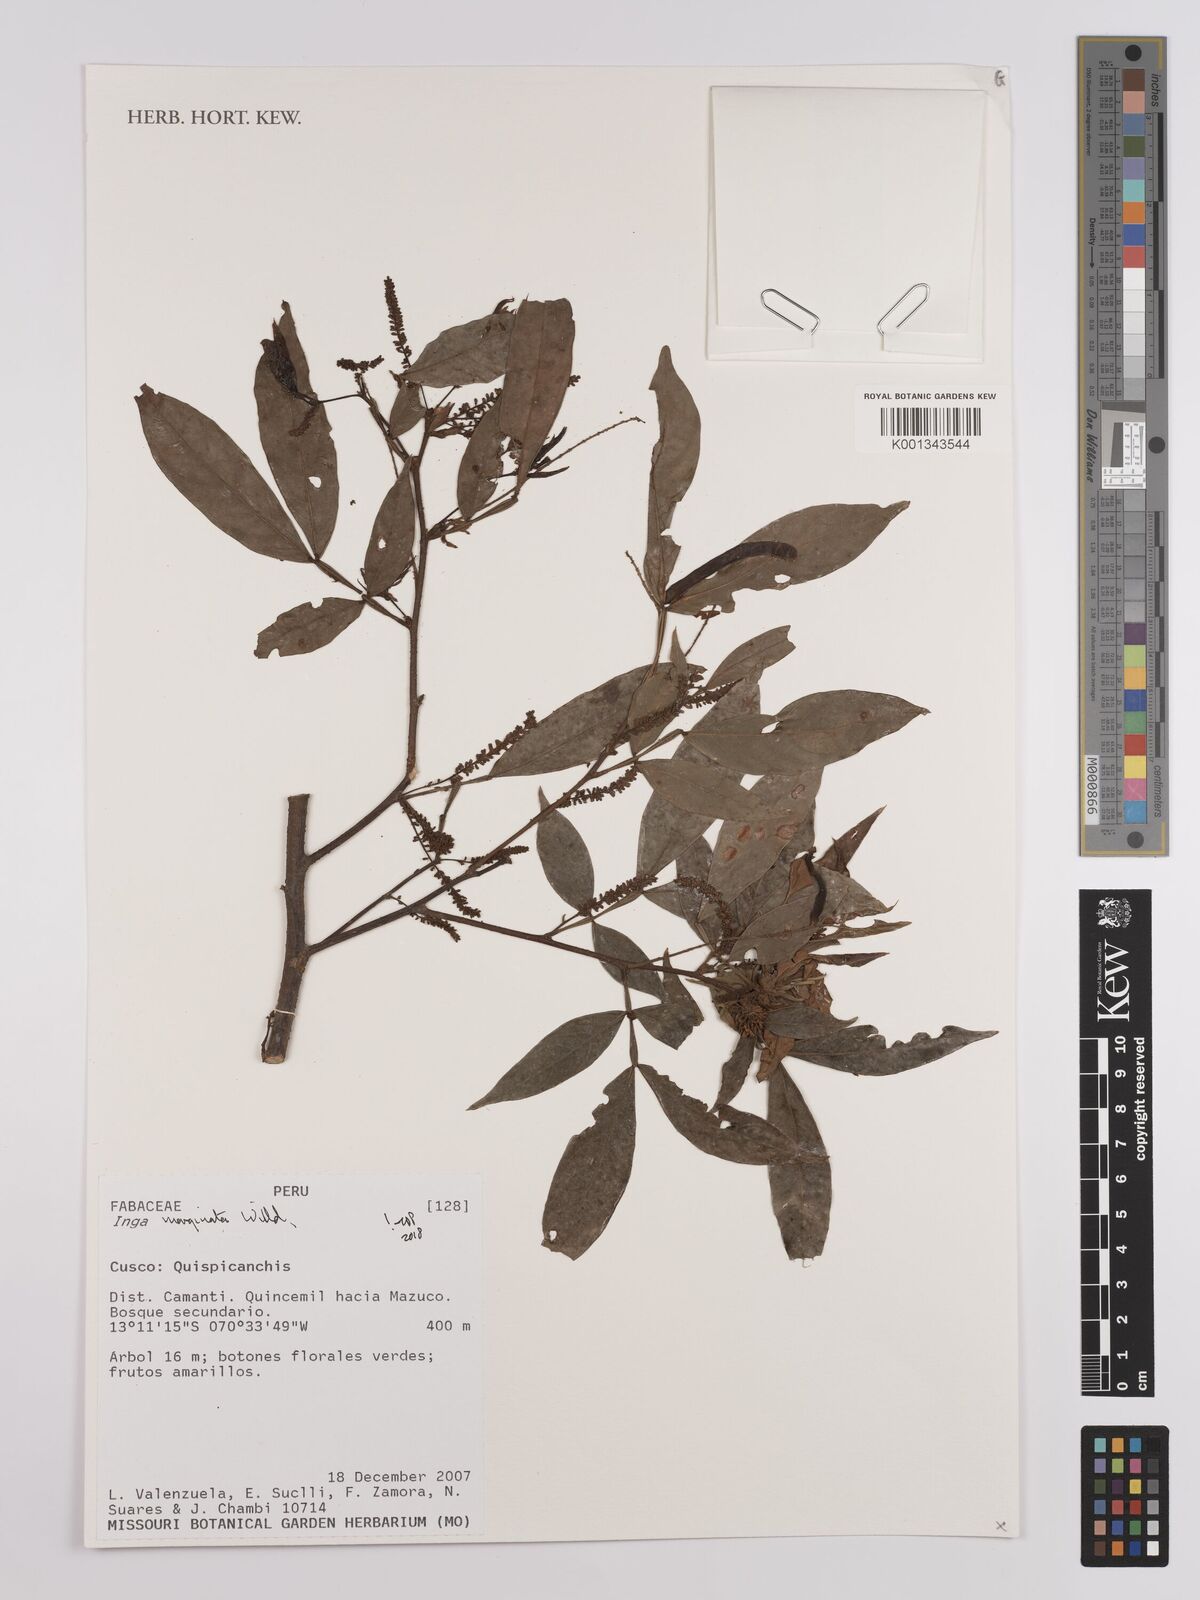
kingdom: Plantae
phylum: Tracheophyta
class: Magnoliopsida
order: Fabales
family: Fabaceae
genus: Inga
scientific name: Inga marginata
